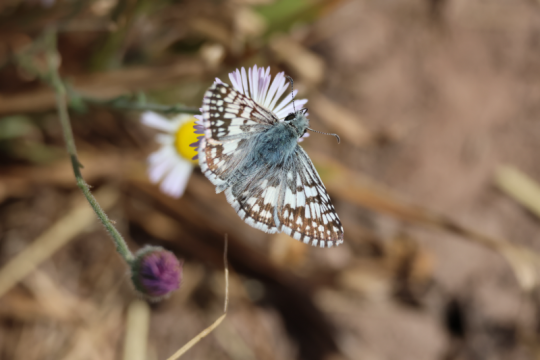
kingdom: Animalia
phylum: Arthropoda
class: Insecta
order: Lepidoptera
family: Hesperiidae
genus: Pyrgus
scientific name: Pyrgus communis
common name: Common Checkered-Skipper
